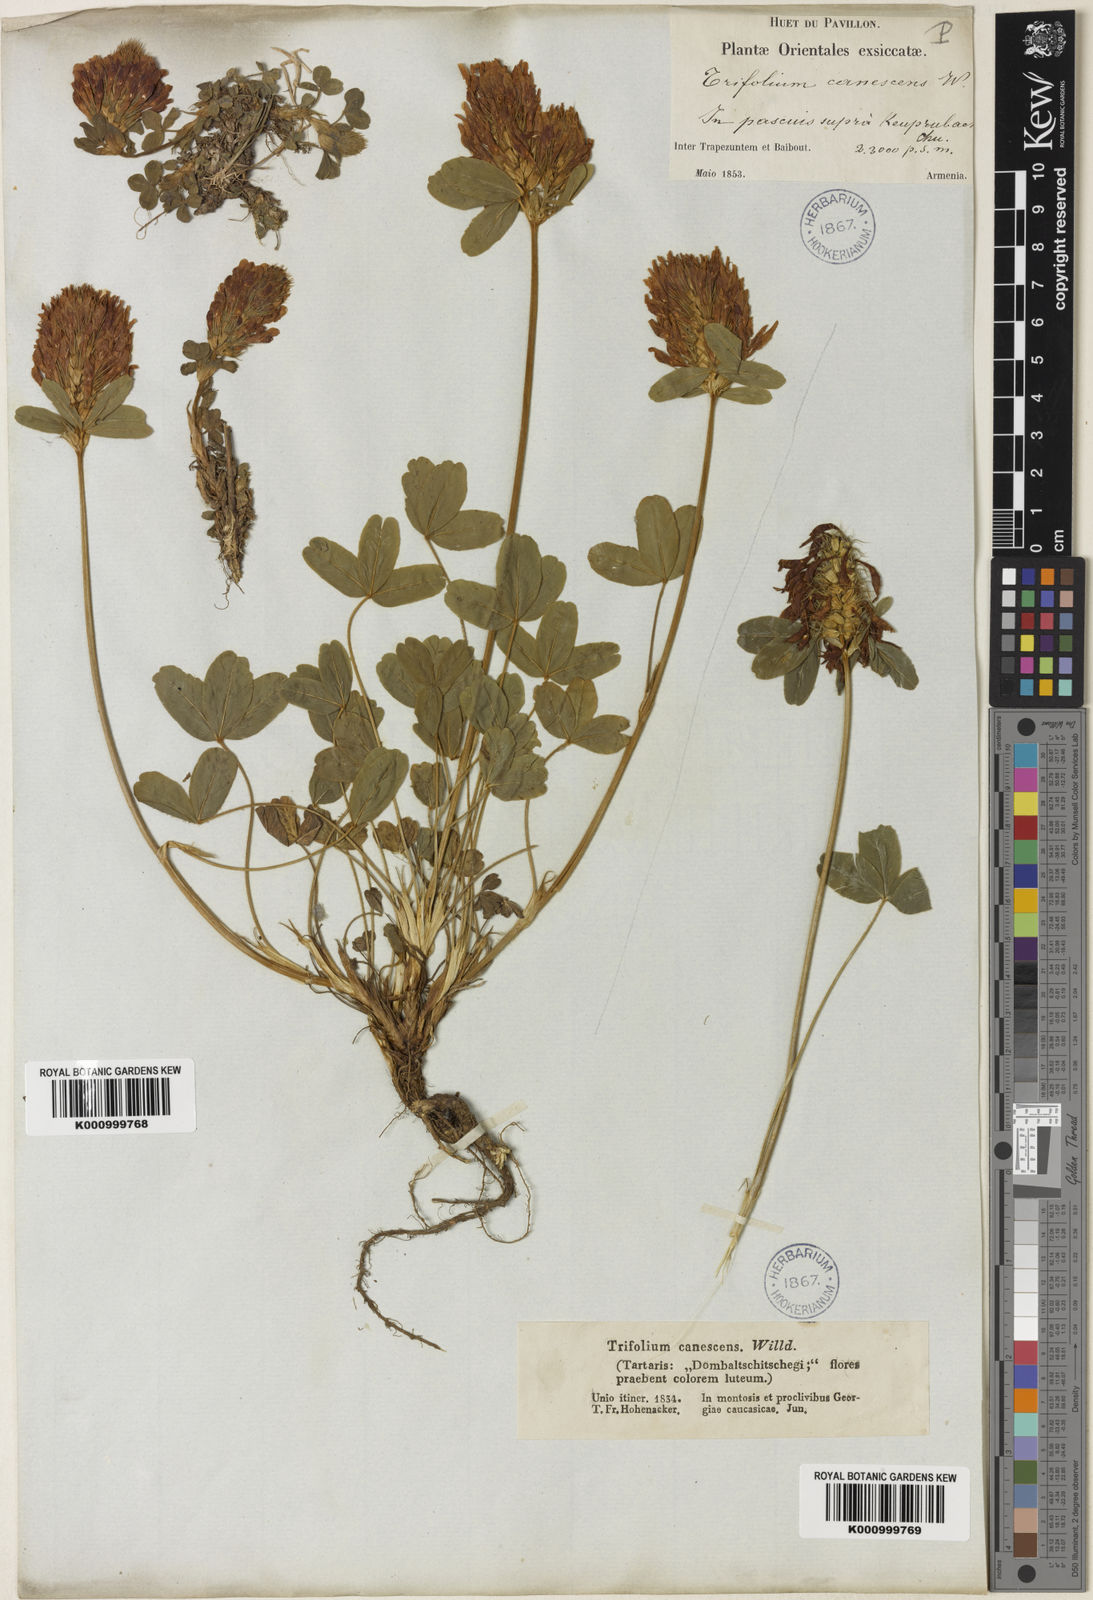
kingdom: Plantae
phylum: Tracheophyta
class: Magnoliopsida
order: Fabales
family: Fabaceae
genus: Trifolium
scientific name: Trifolium canescens
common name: Graying clover
